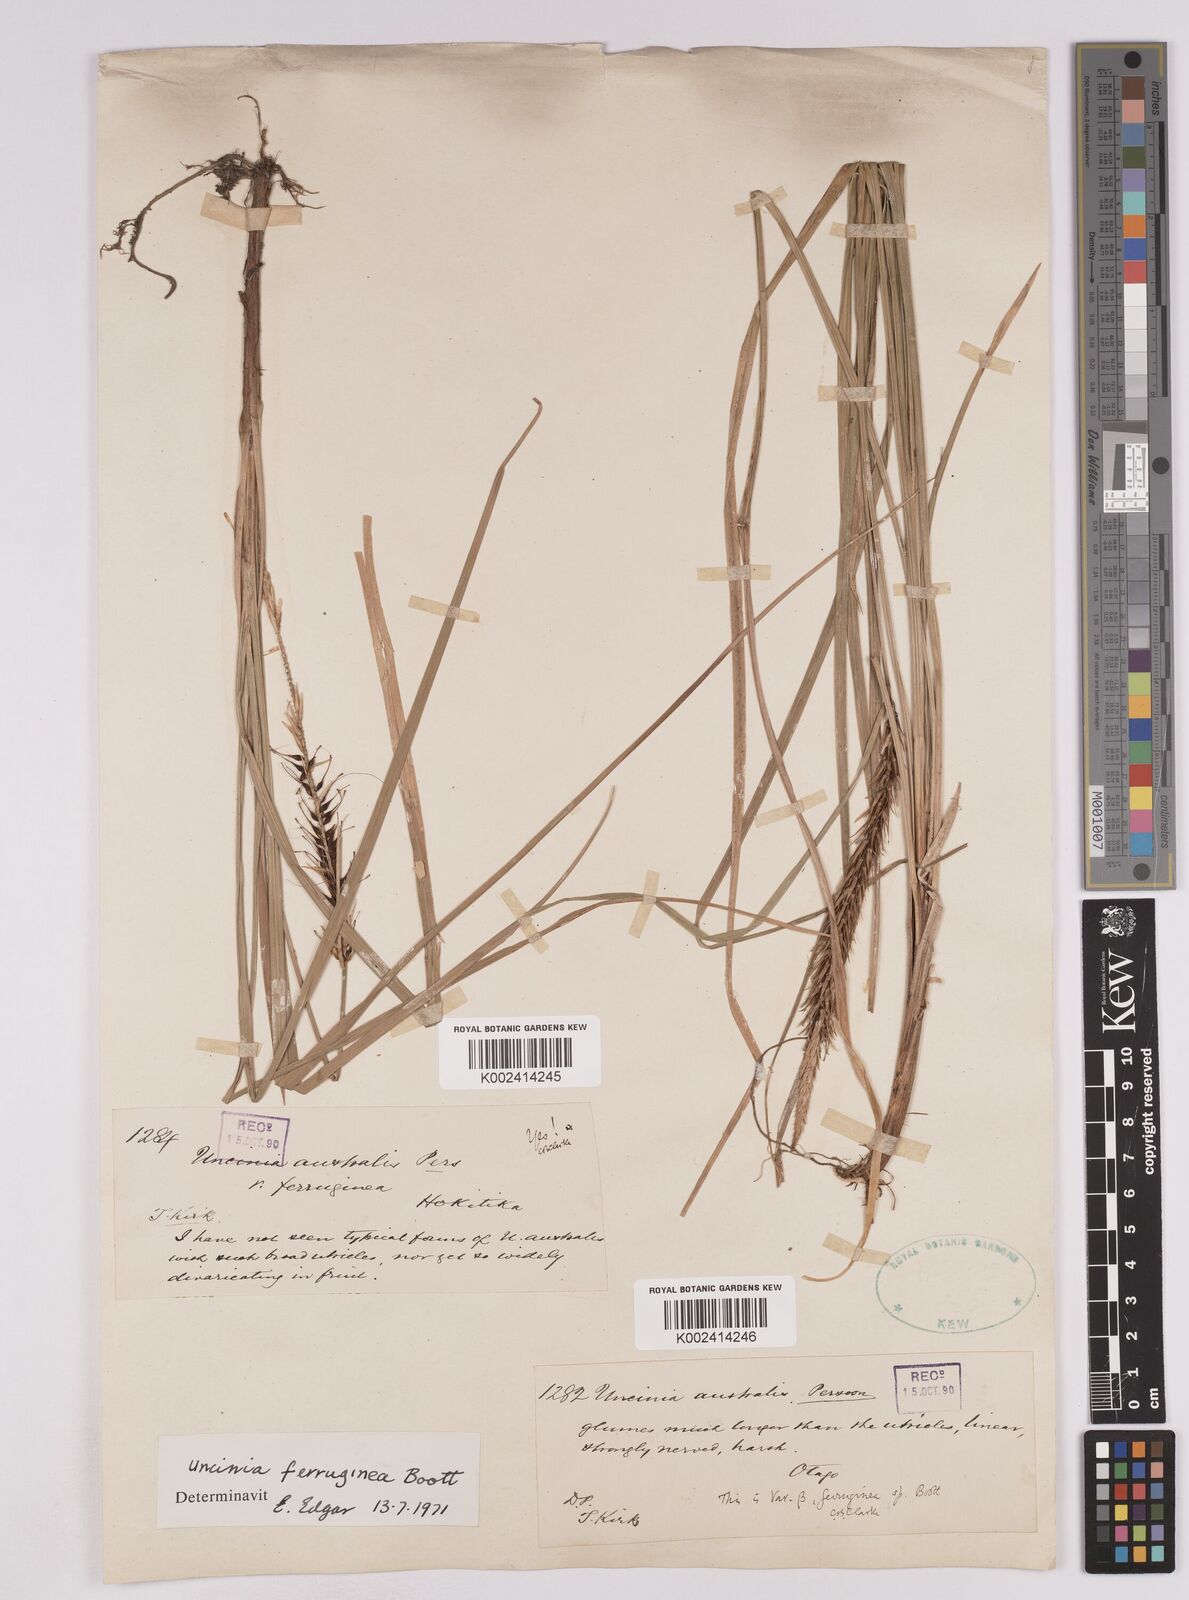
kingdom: Plantae
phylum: Tracheophyta
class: Liliopsida
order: Poales
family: Cyperaceae
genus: Carex
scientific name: Carex uncinata
